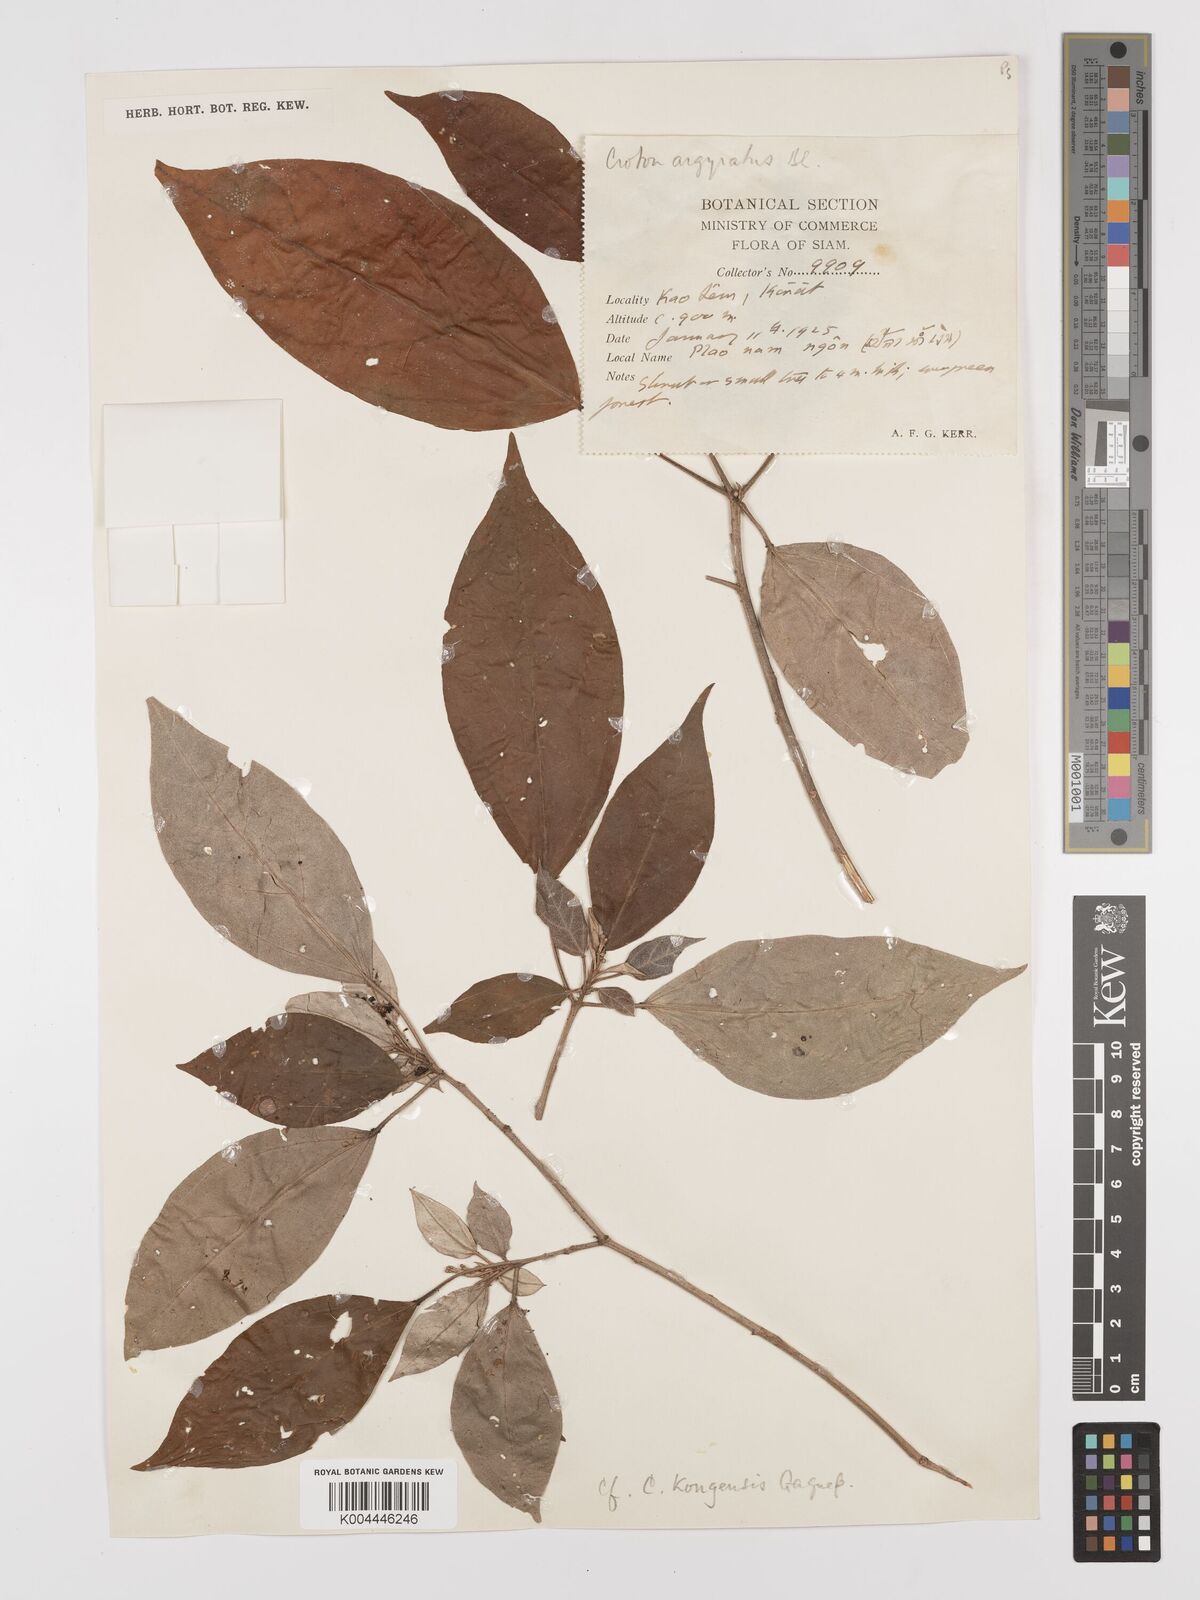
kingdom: Plantae
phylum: Tracheophyta
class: Magnoliopsida
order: Malpighiales
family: Euphorbiaceae
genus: Croton
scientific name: Croton kongensis
